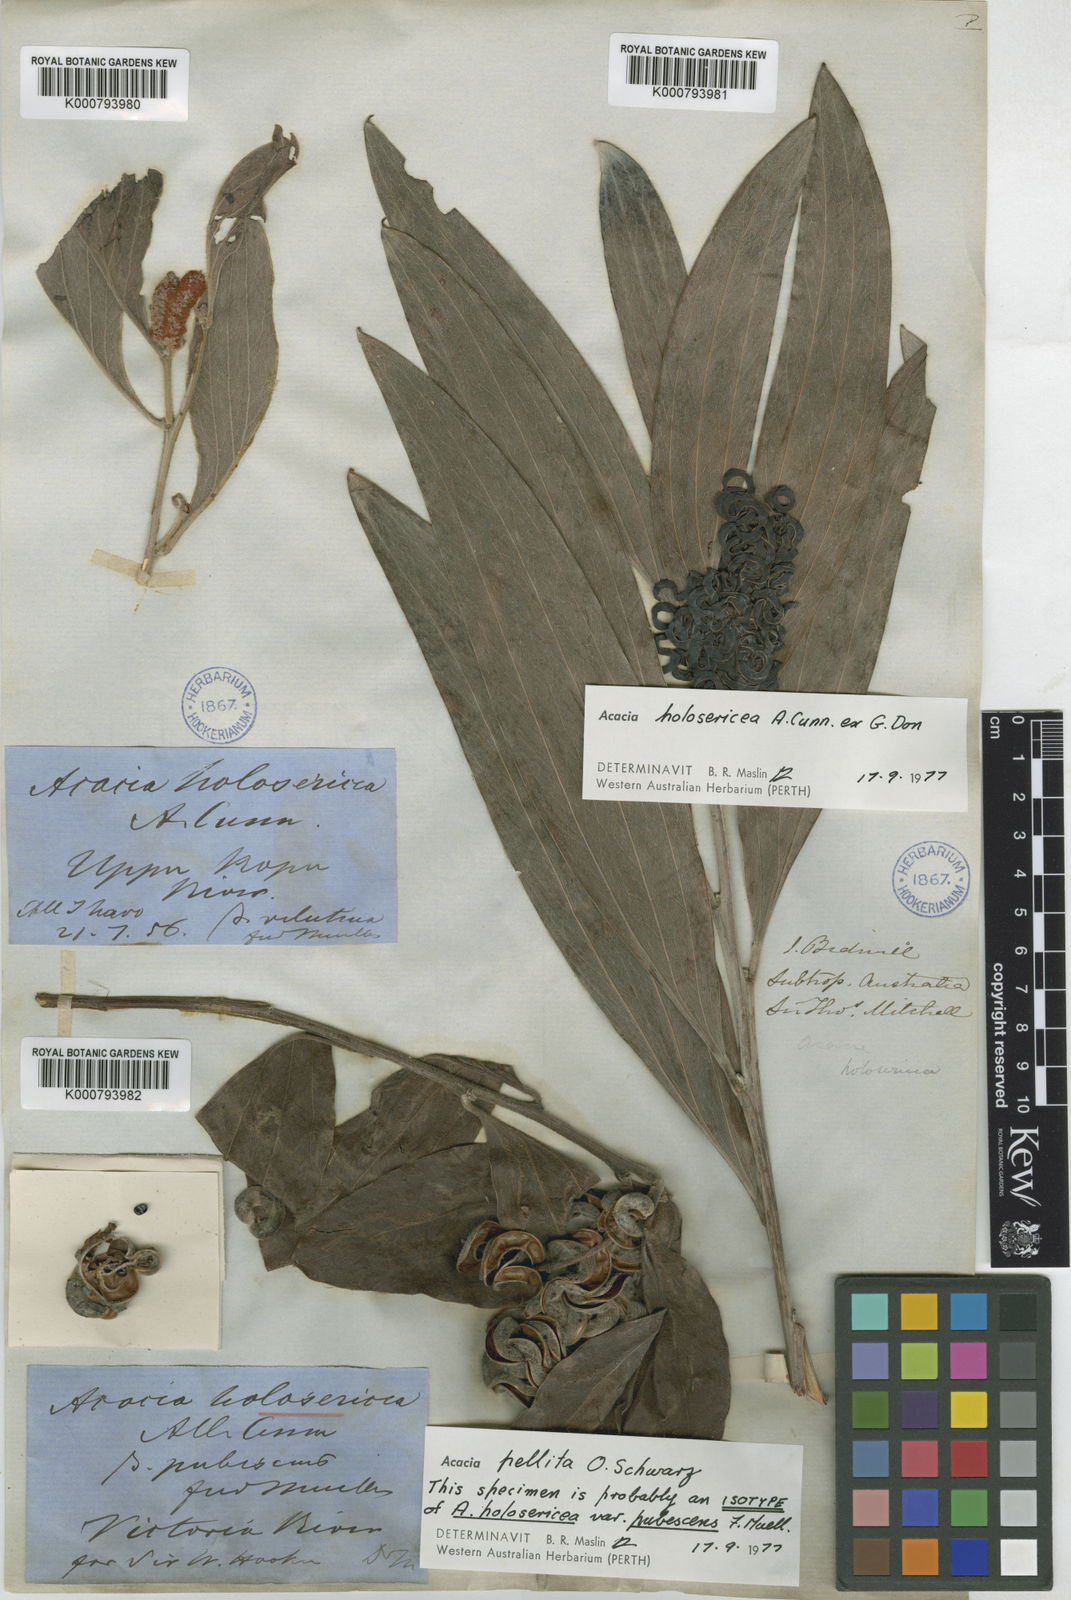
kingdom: Plantae
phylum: Tracheophyta
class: Magnoliopsida
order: Fabales
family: Fabaceae
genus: Acacia
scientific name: Acacia pellita
